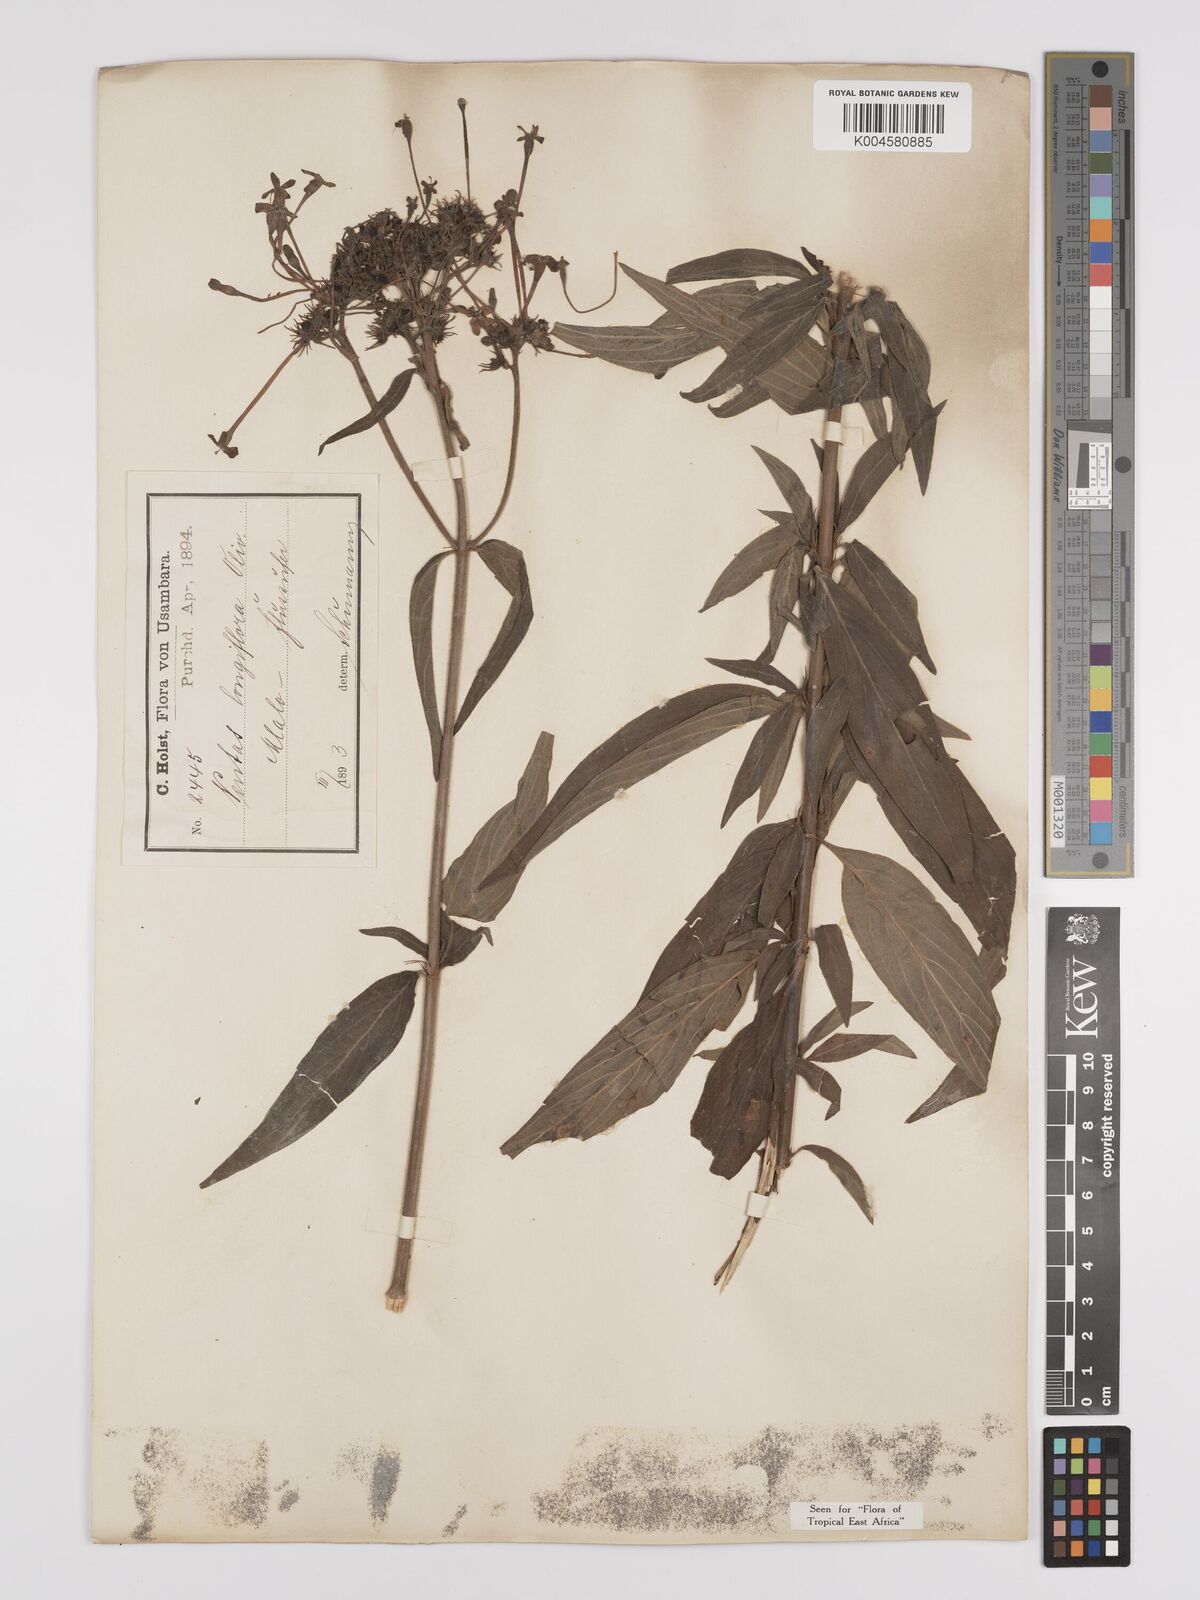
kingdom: Plantae
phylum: Tracheophyta
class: Magnoliopsida
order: Gentianales
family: Rubiaceae
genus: Dolichopentas
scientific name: Dolichopentas longiflora
